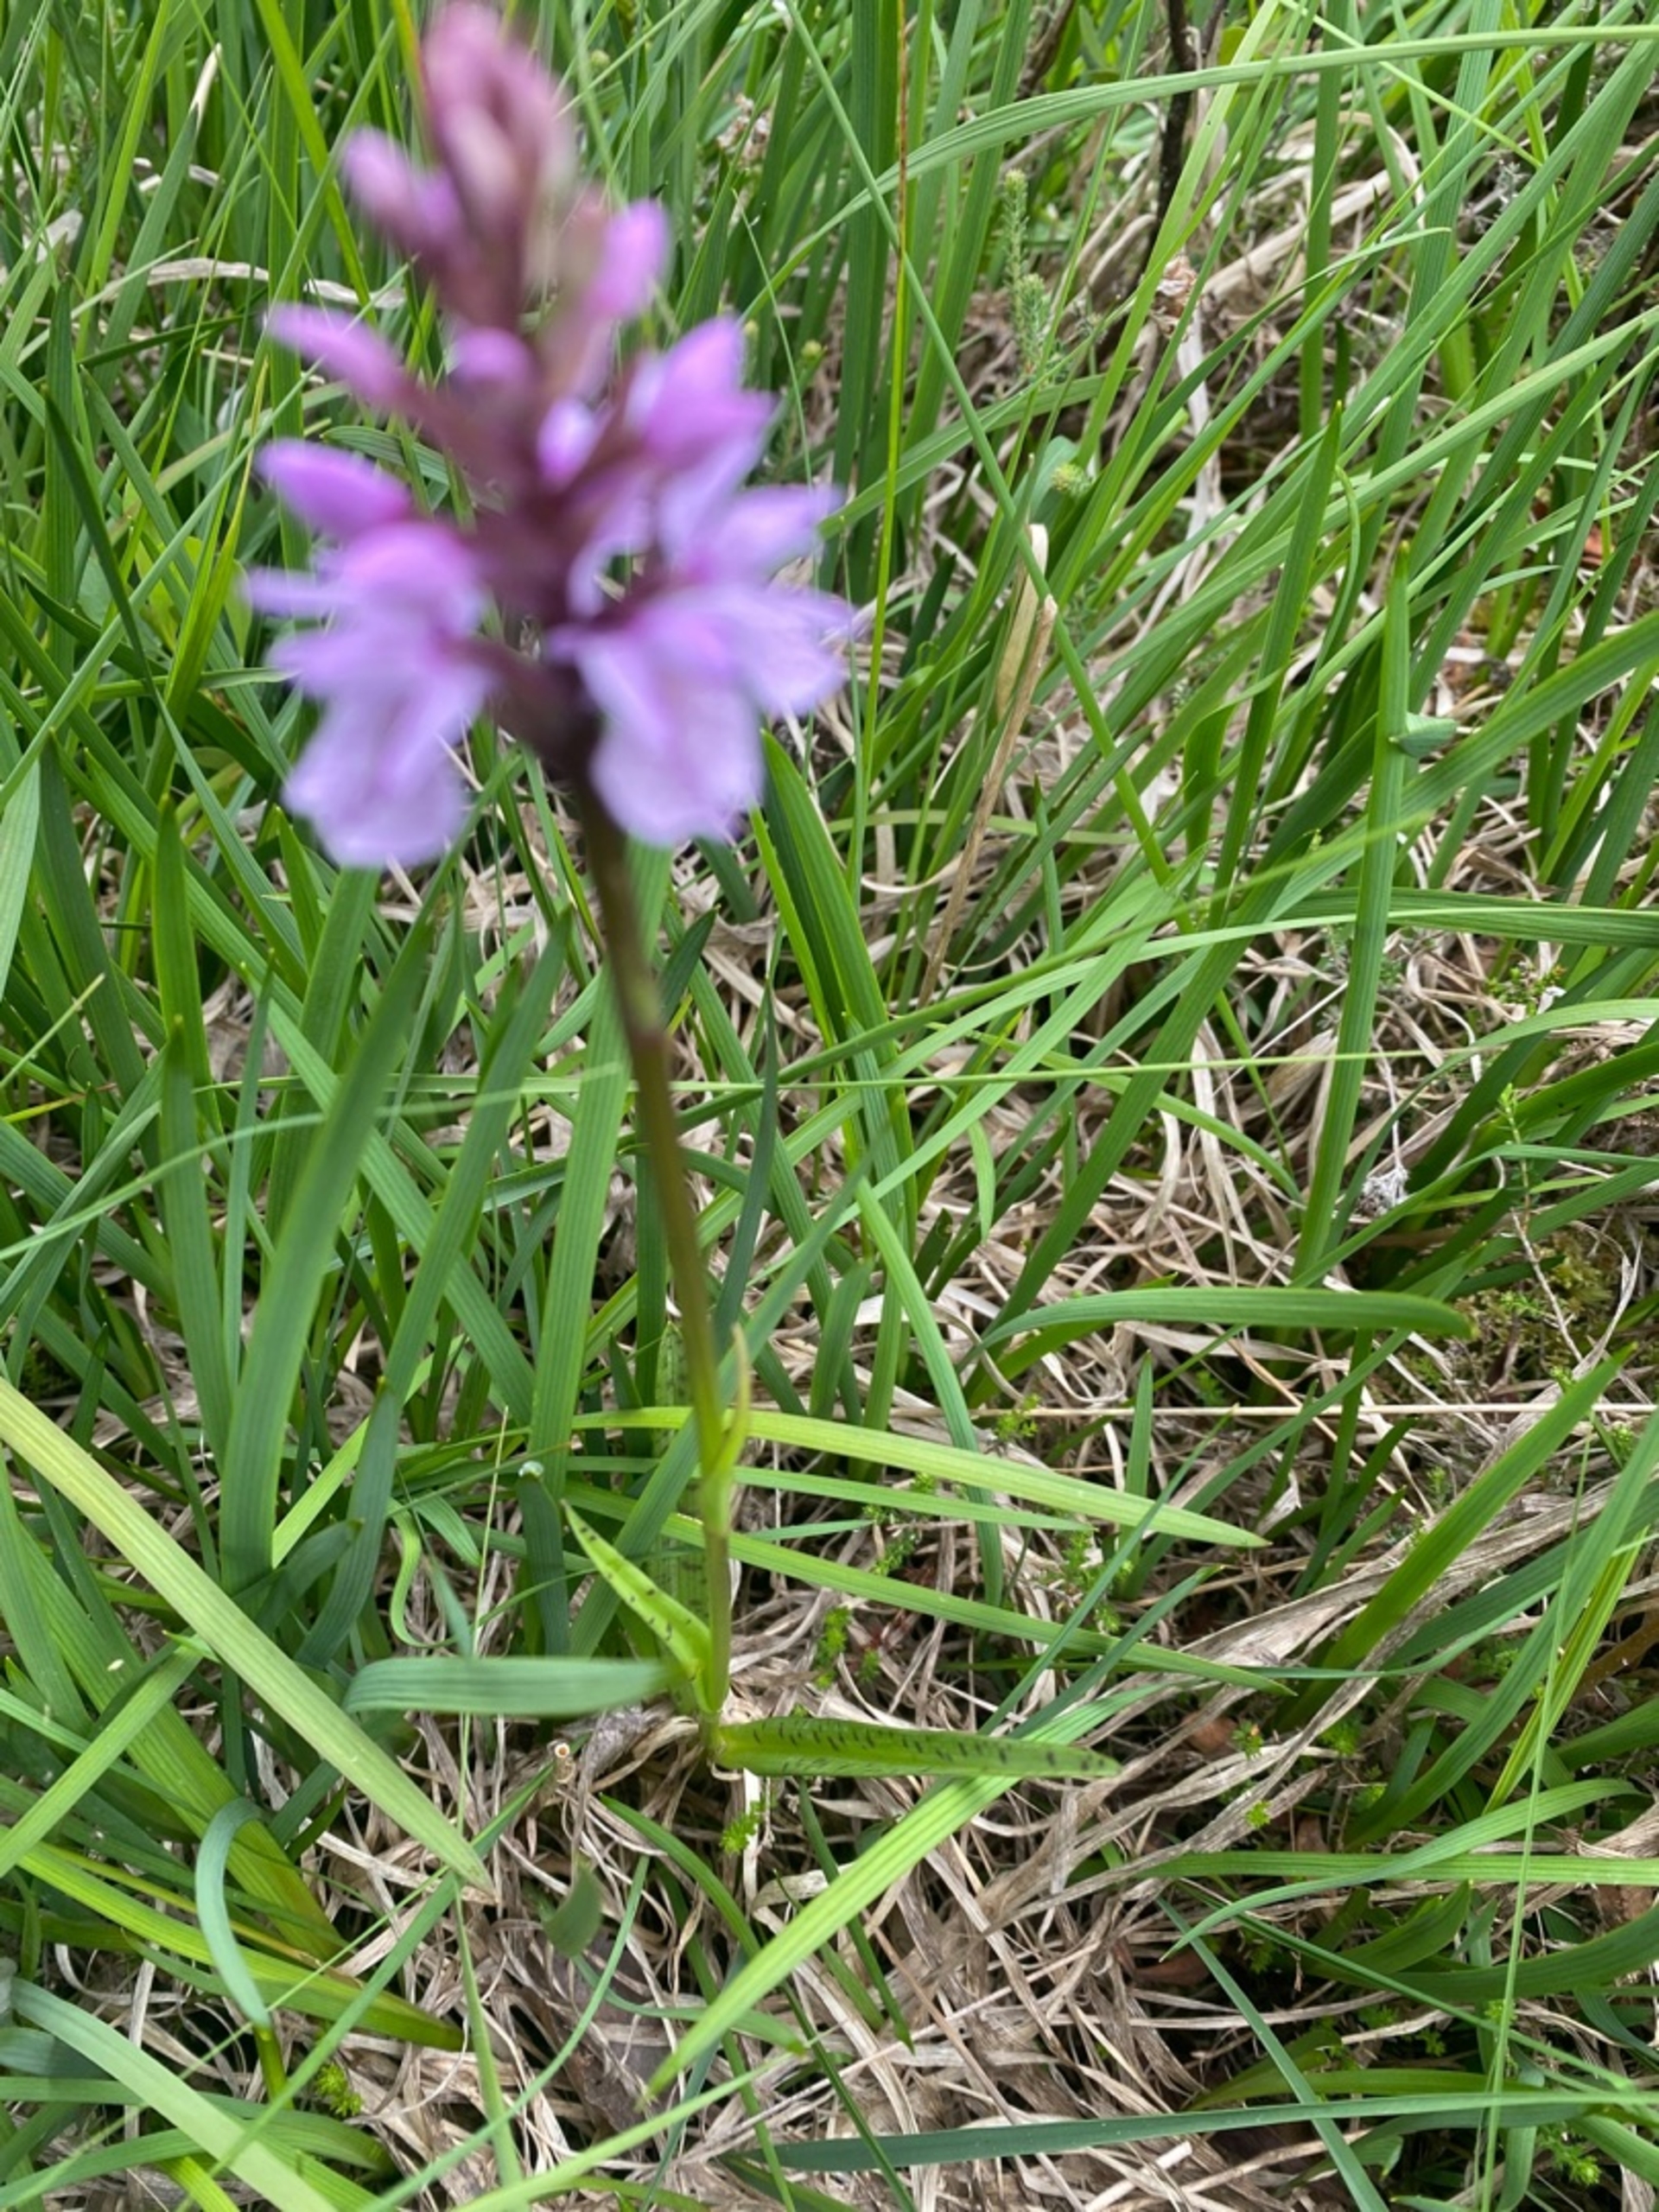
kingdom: Plantae
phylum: Tracheophyta
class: Liliopsida
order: Asparagales
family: Orchidaceae
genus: Dactylorhiza
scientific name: Dactylorhiza maculata
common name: Plettet gøgeurt
